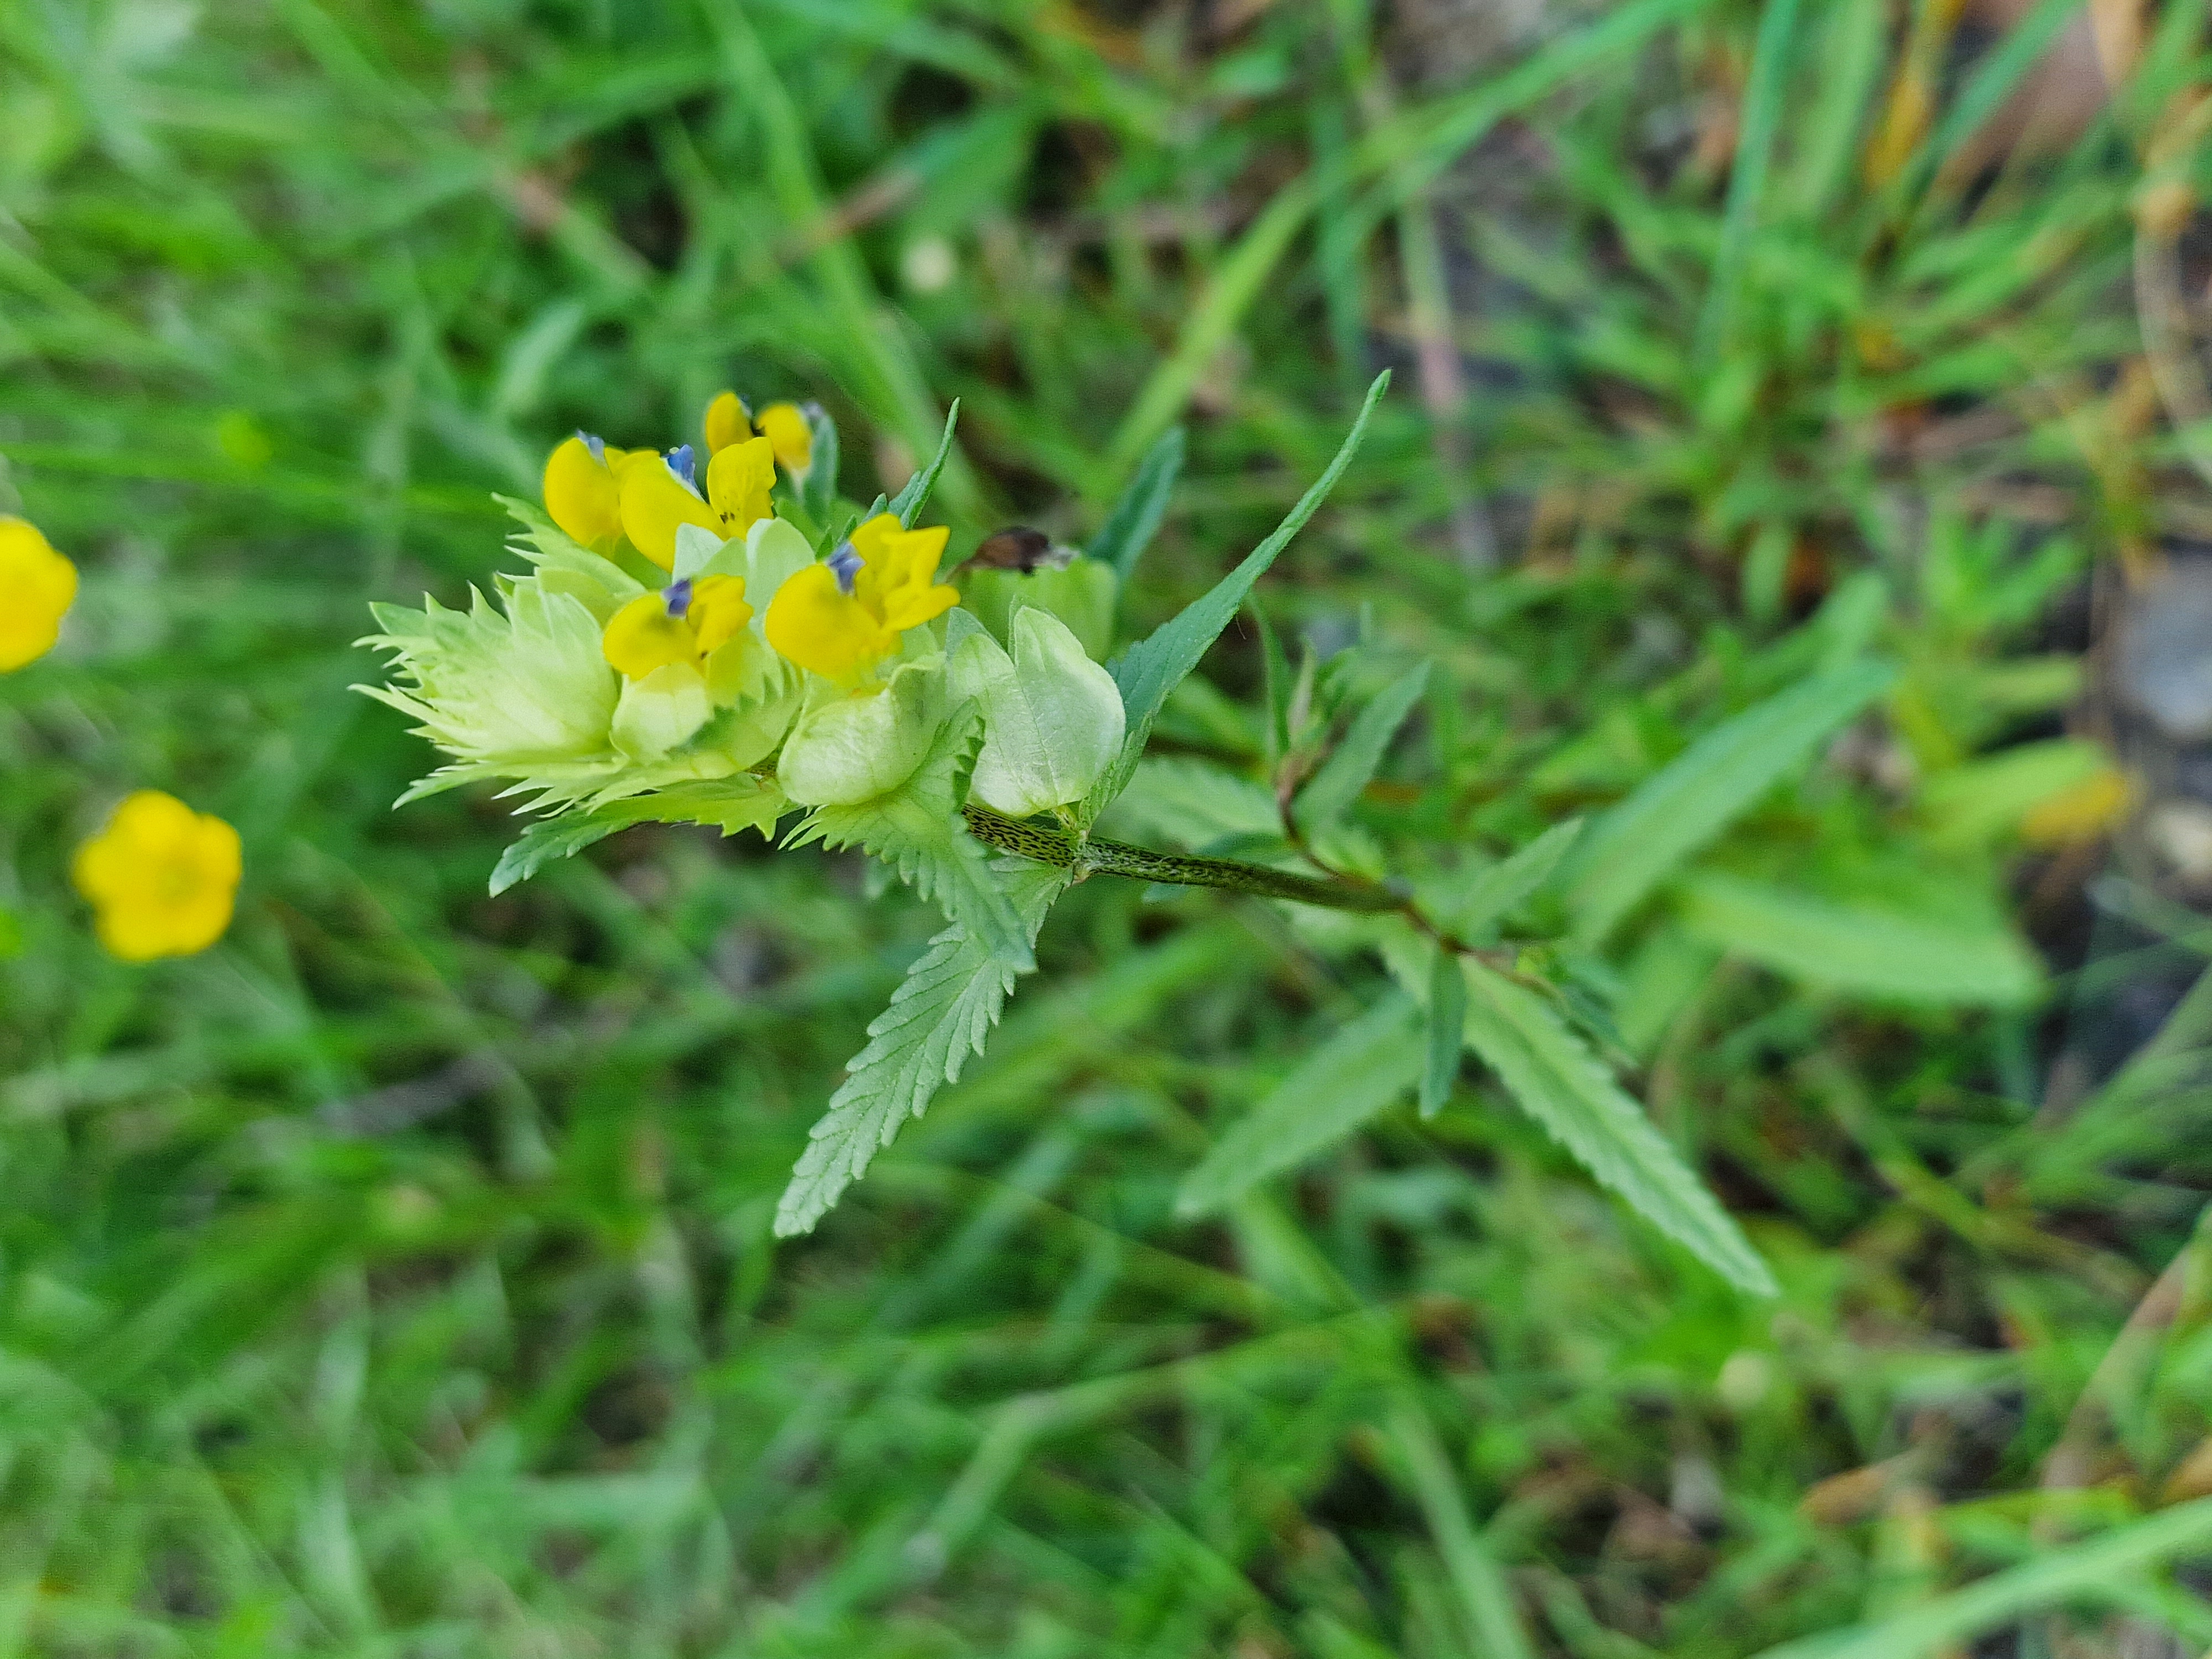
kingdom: Plantae
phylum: Tracheophyta
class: Magnoliopsida
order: Lamiales
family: Orobanchaceae
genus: Rhinanthus
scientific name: Rhinanthus
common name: Stor skjaller
